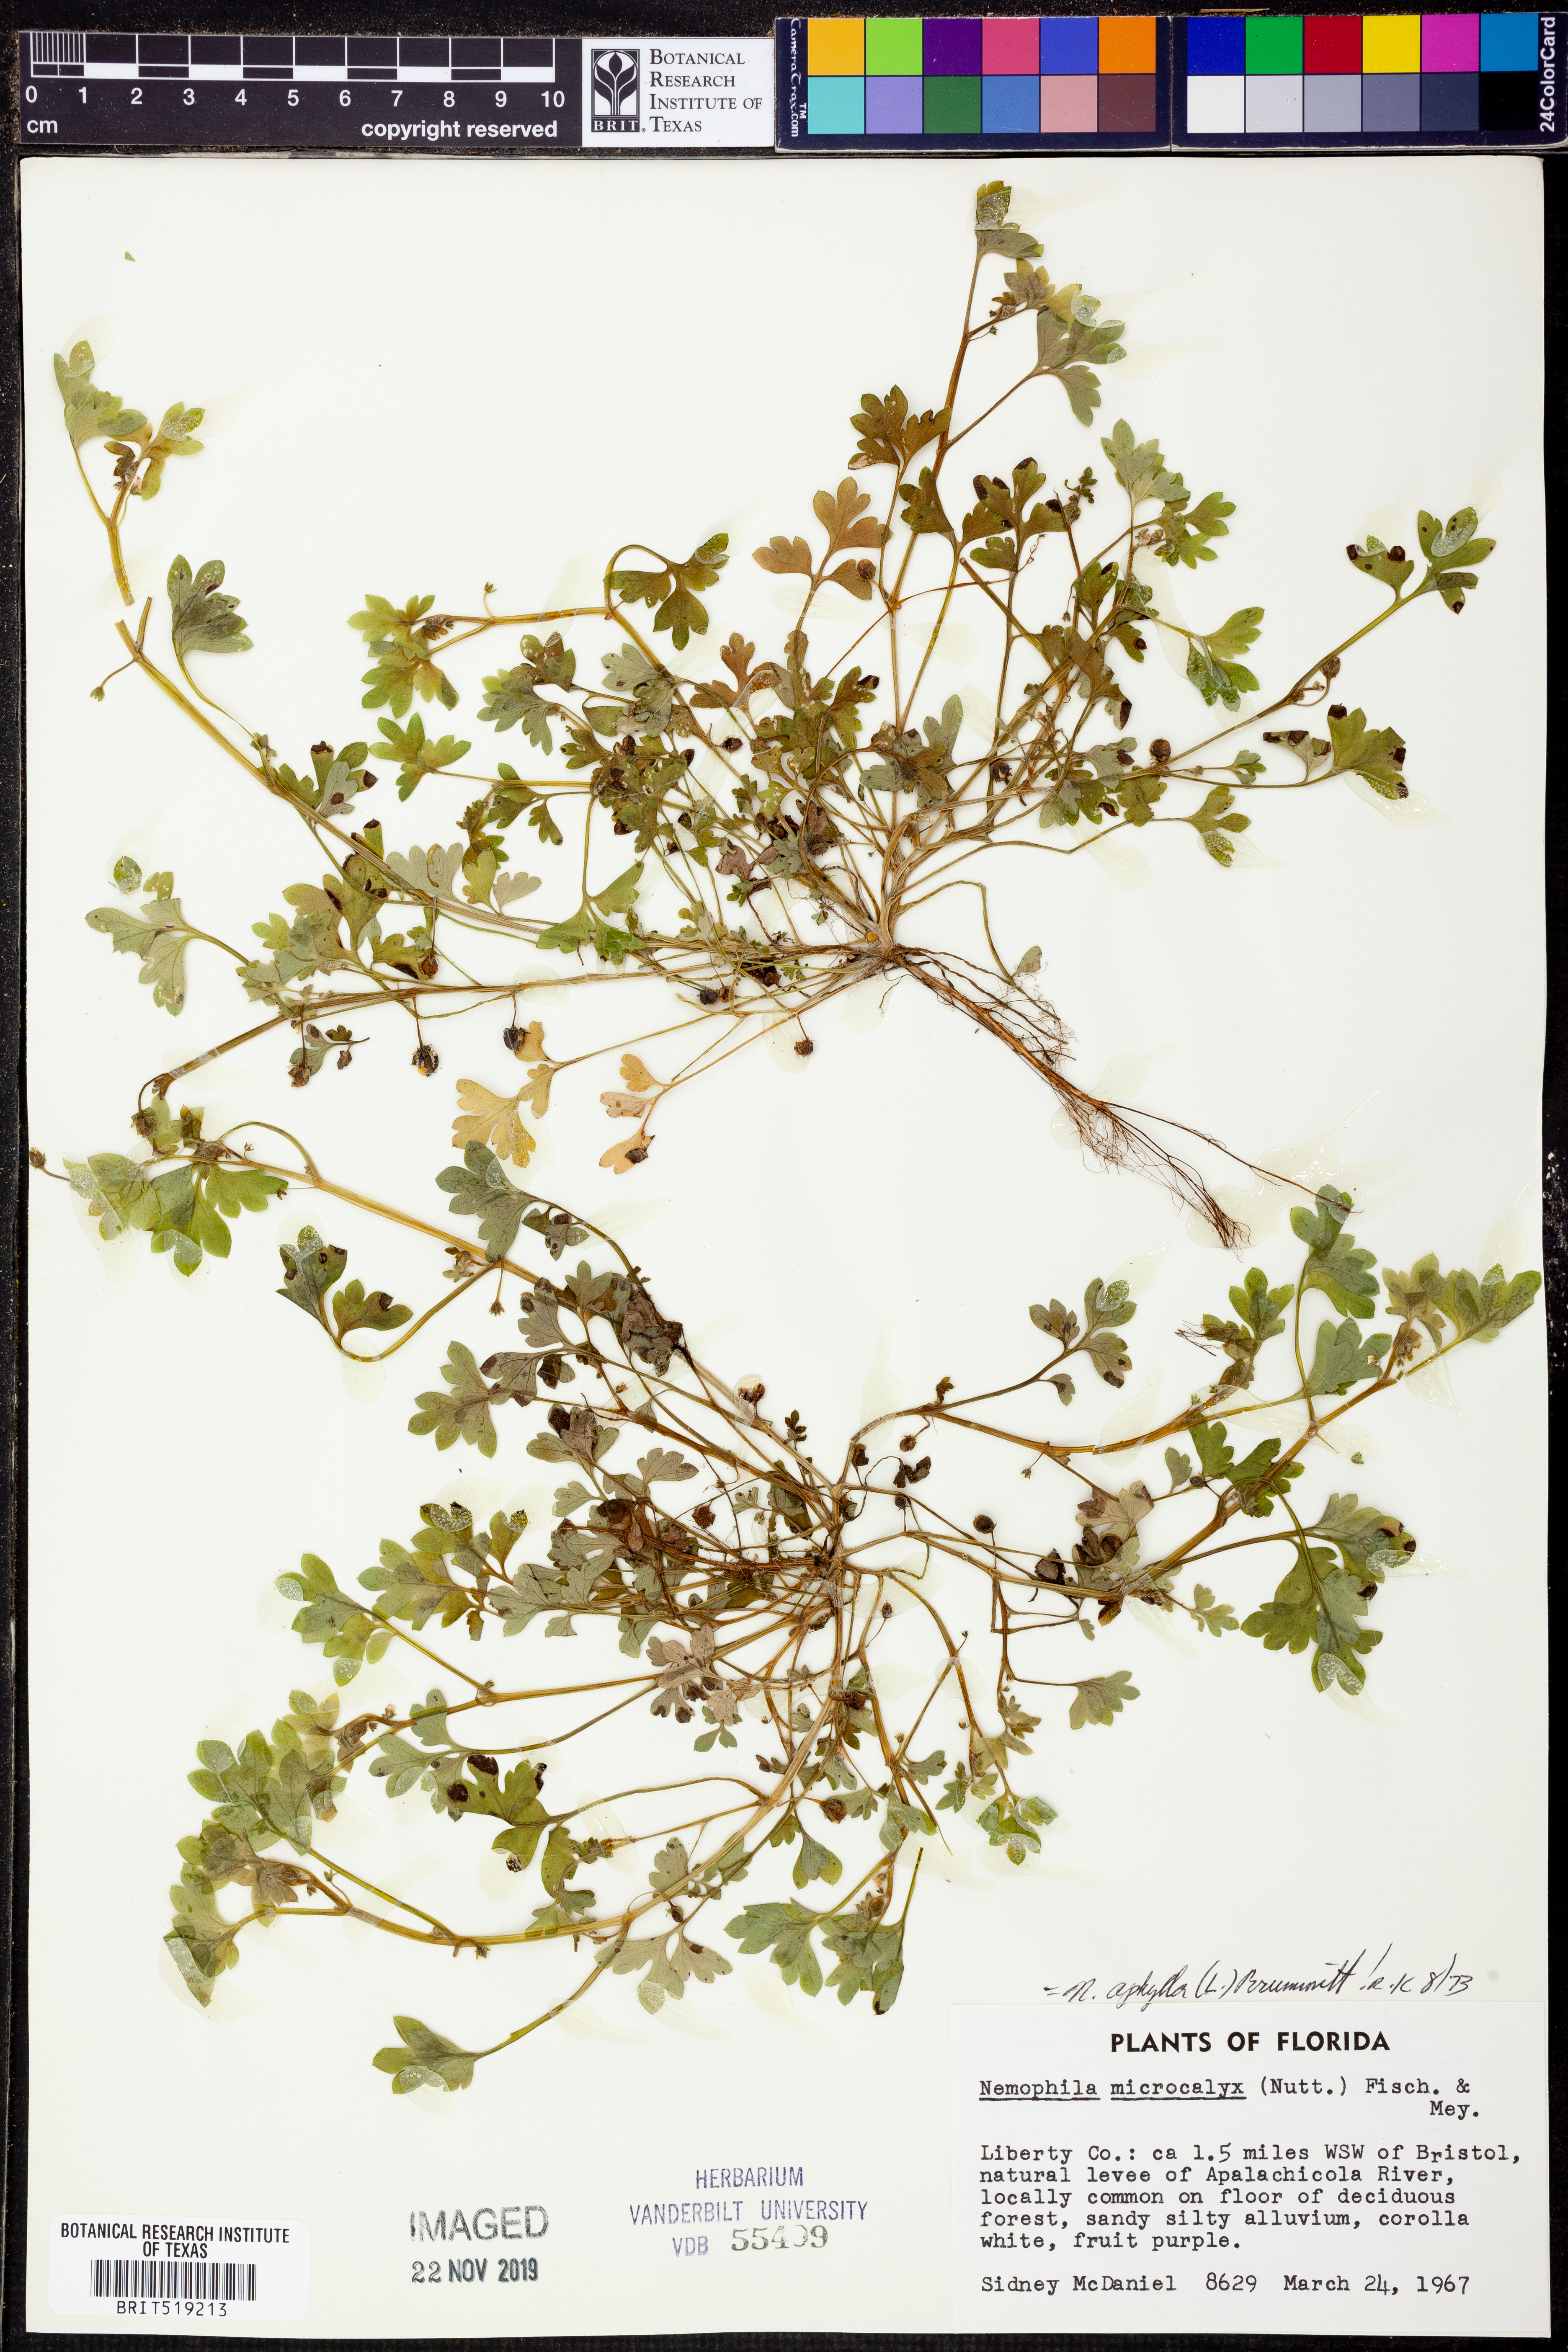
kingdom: Plantae
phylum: Tracheophyta
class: Magnoliopsida
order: Boraginales
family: Hydrophyllaceae
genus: Nemophila
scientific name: Nemophila aphylla
